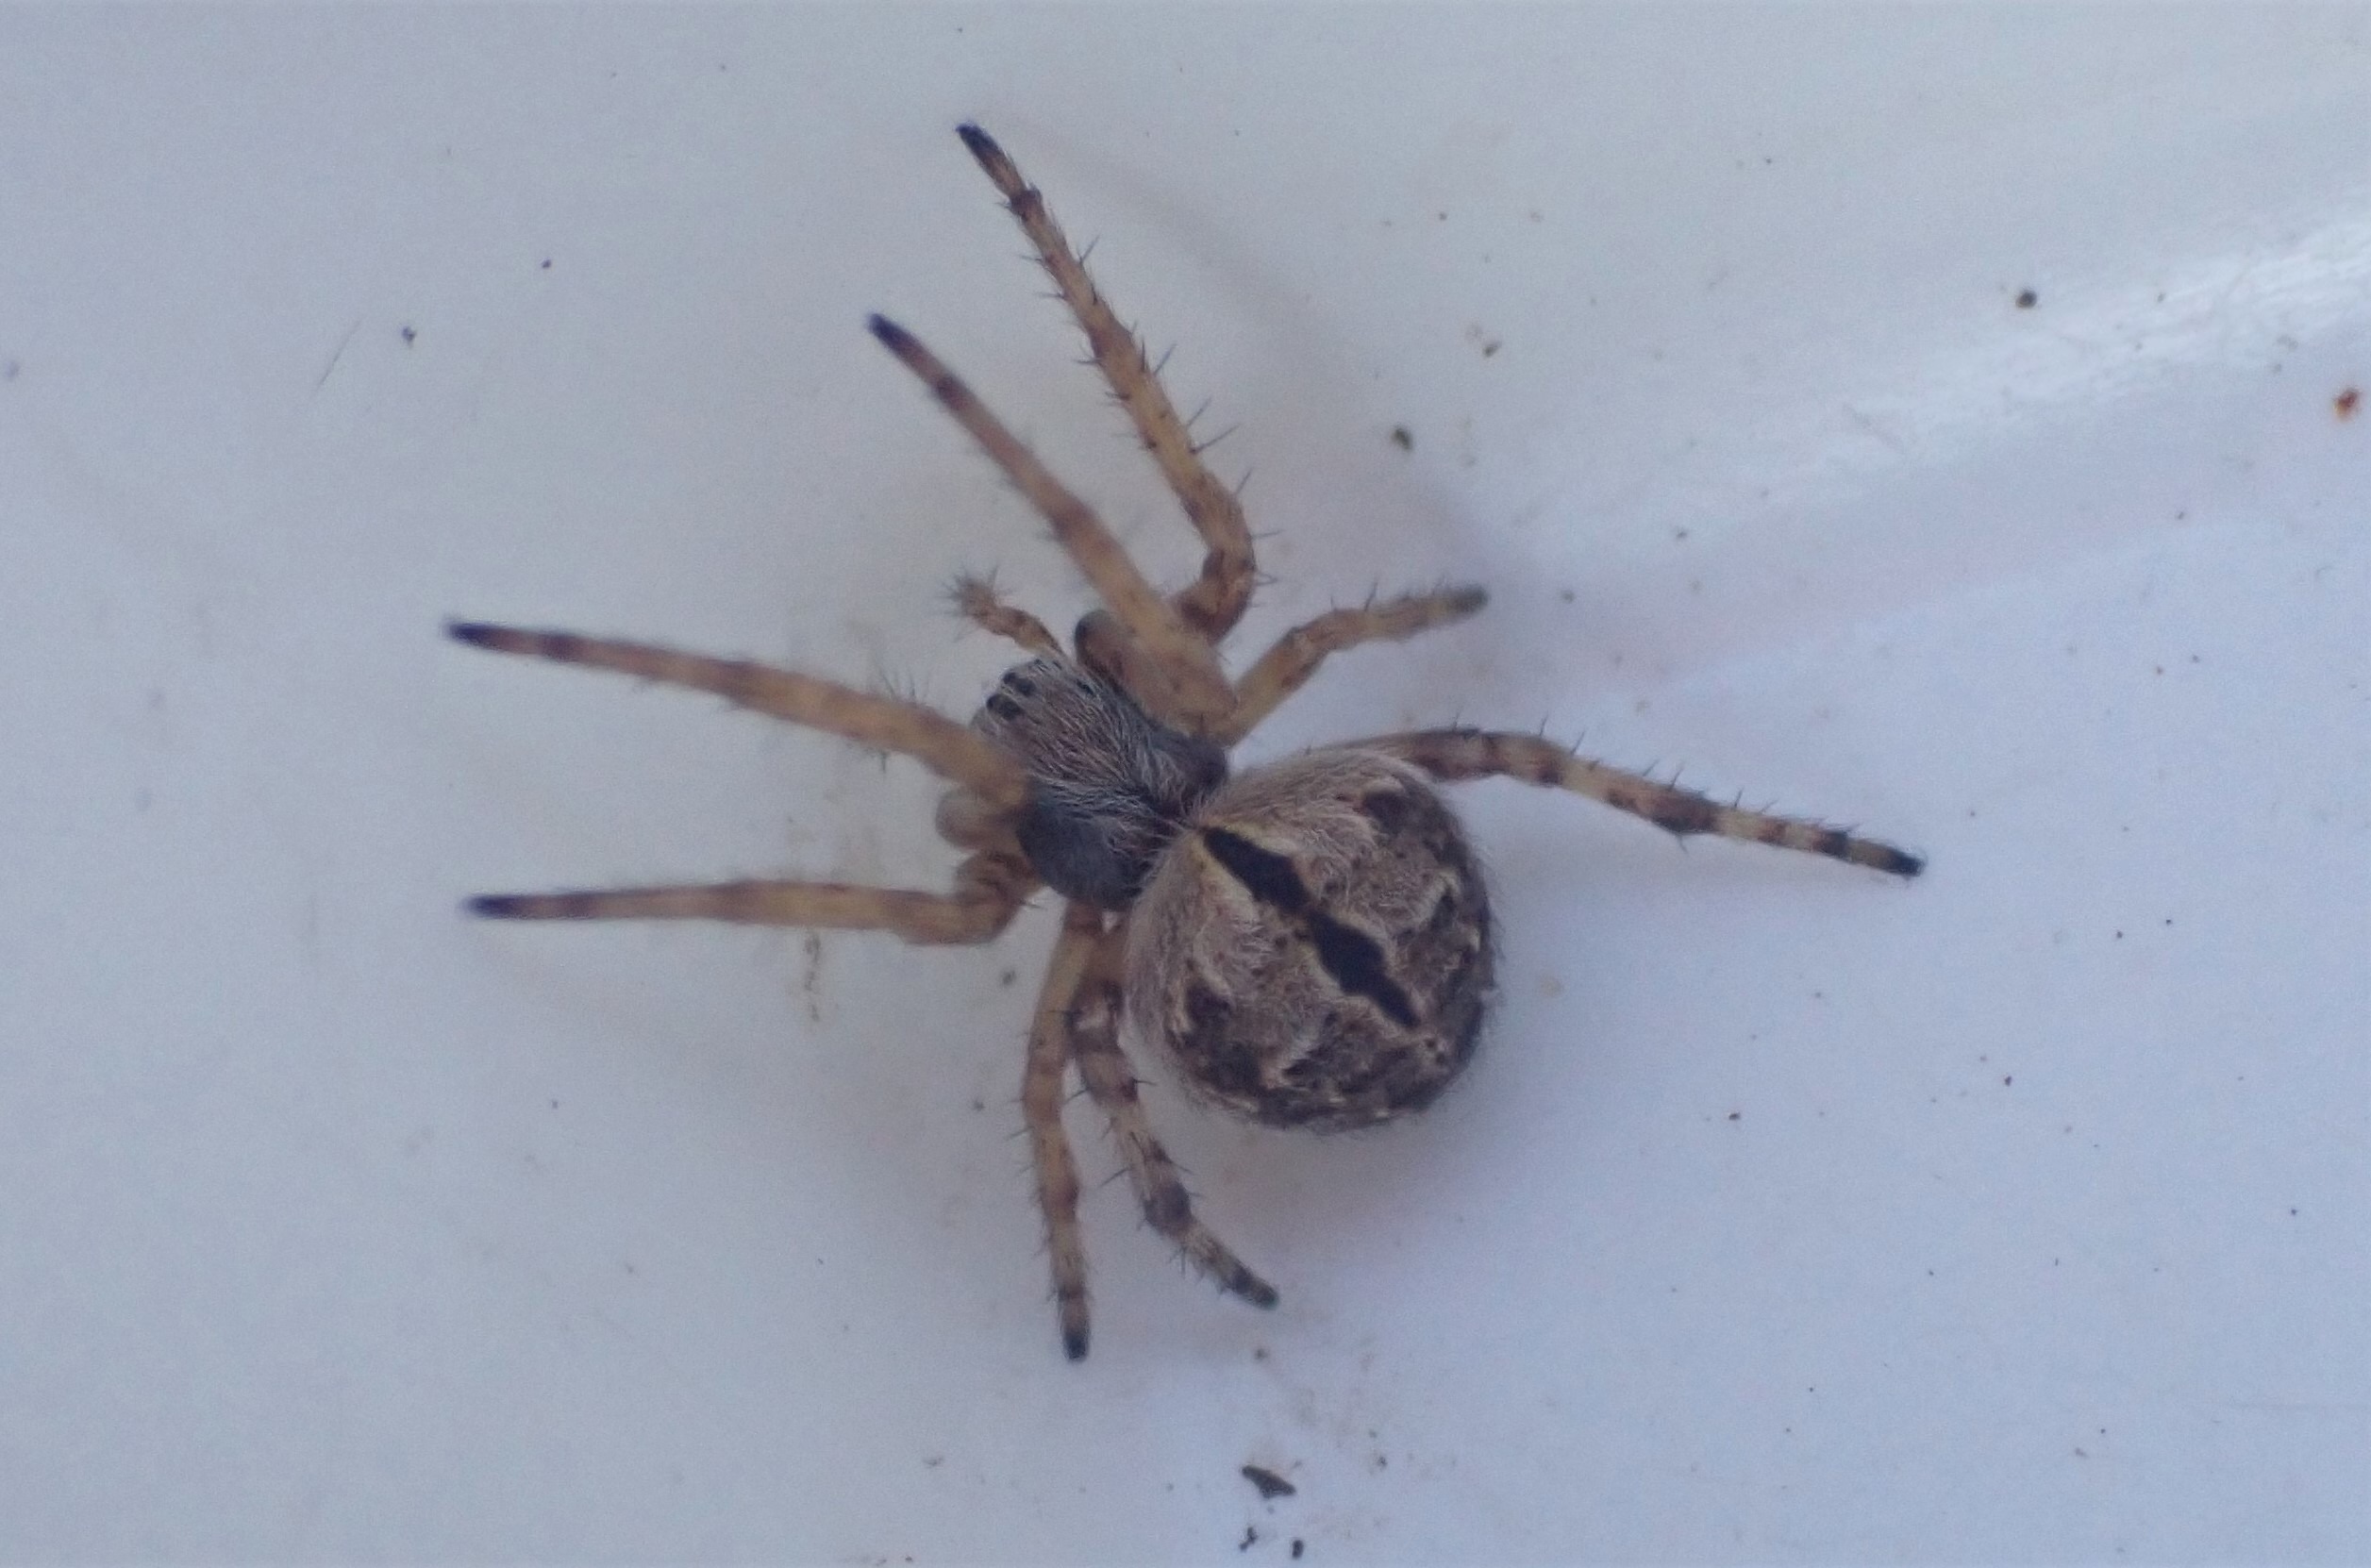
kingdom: Animalia
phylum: Arthropoda
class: Arachnida
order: Araneae
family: Araneidae
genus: Agalenatea
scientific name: Agalenatea redii
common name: Lodden hjulspinder
